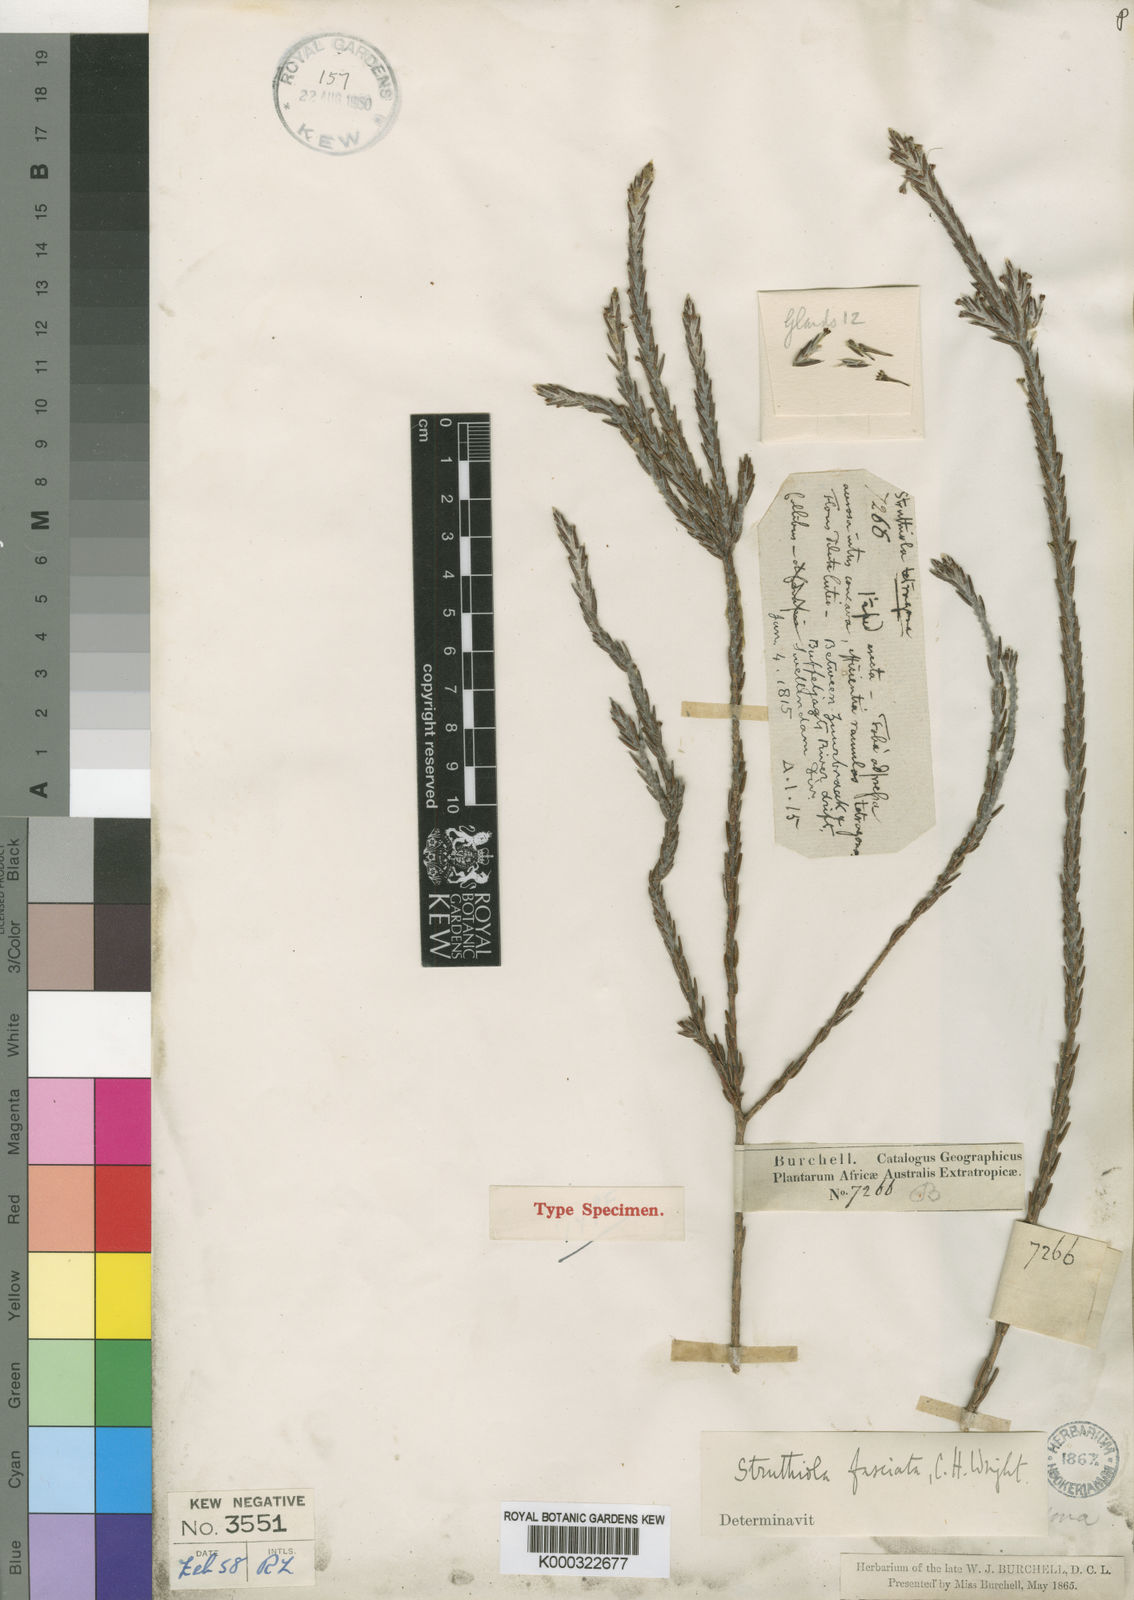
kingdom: Plantae
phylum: Tracheophyta
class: Magnoliopsida
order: Malvales
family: Thymelaeaceae
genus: Struthiola
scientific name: Struthiola fasciata
